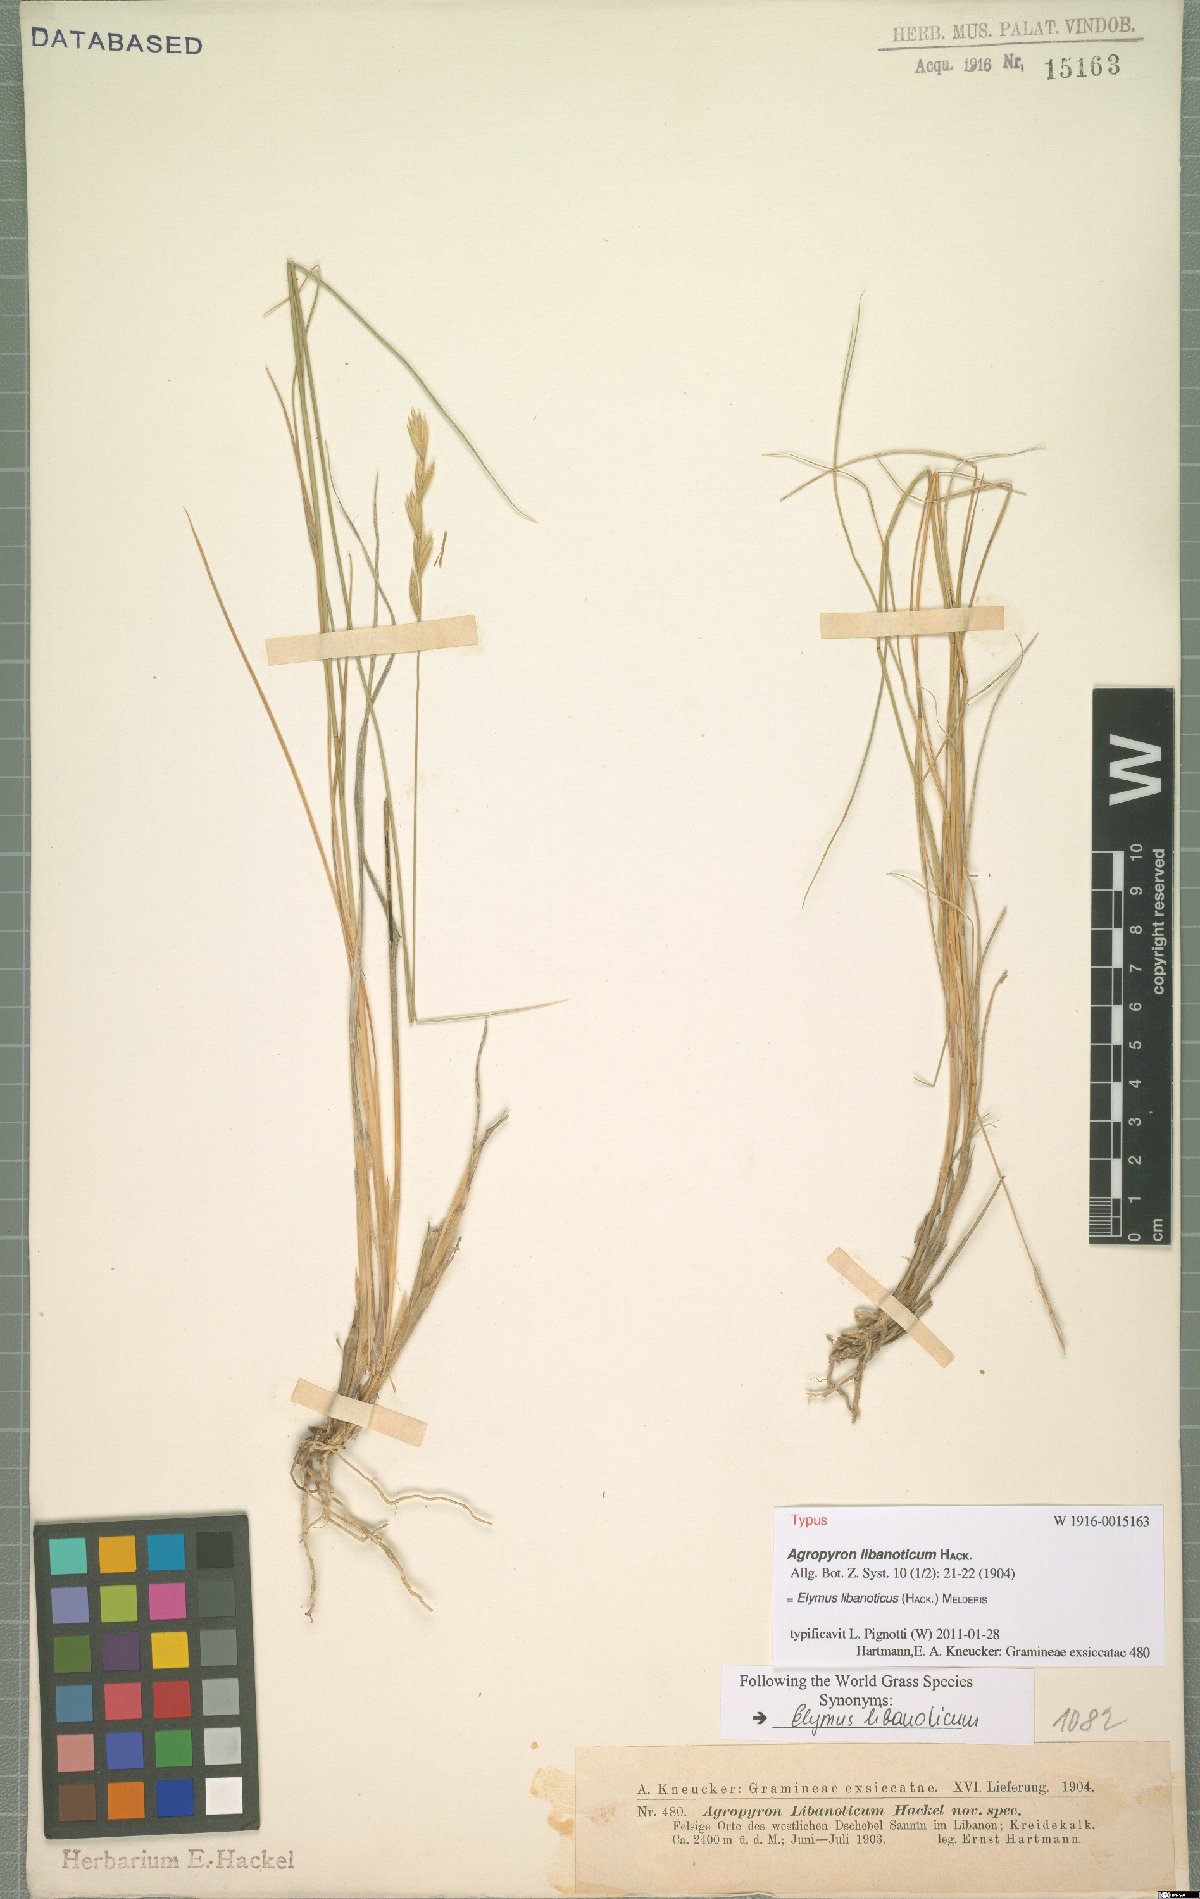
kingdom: Plantae
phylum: Tracheophyta
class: Liliopsida
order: Poales
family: Poaceae
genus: Pseudoroegneria
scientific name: Pseudoroegneria libanotica
